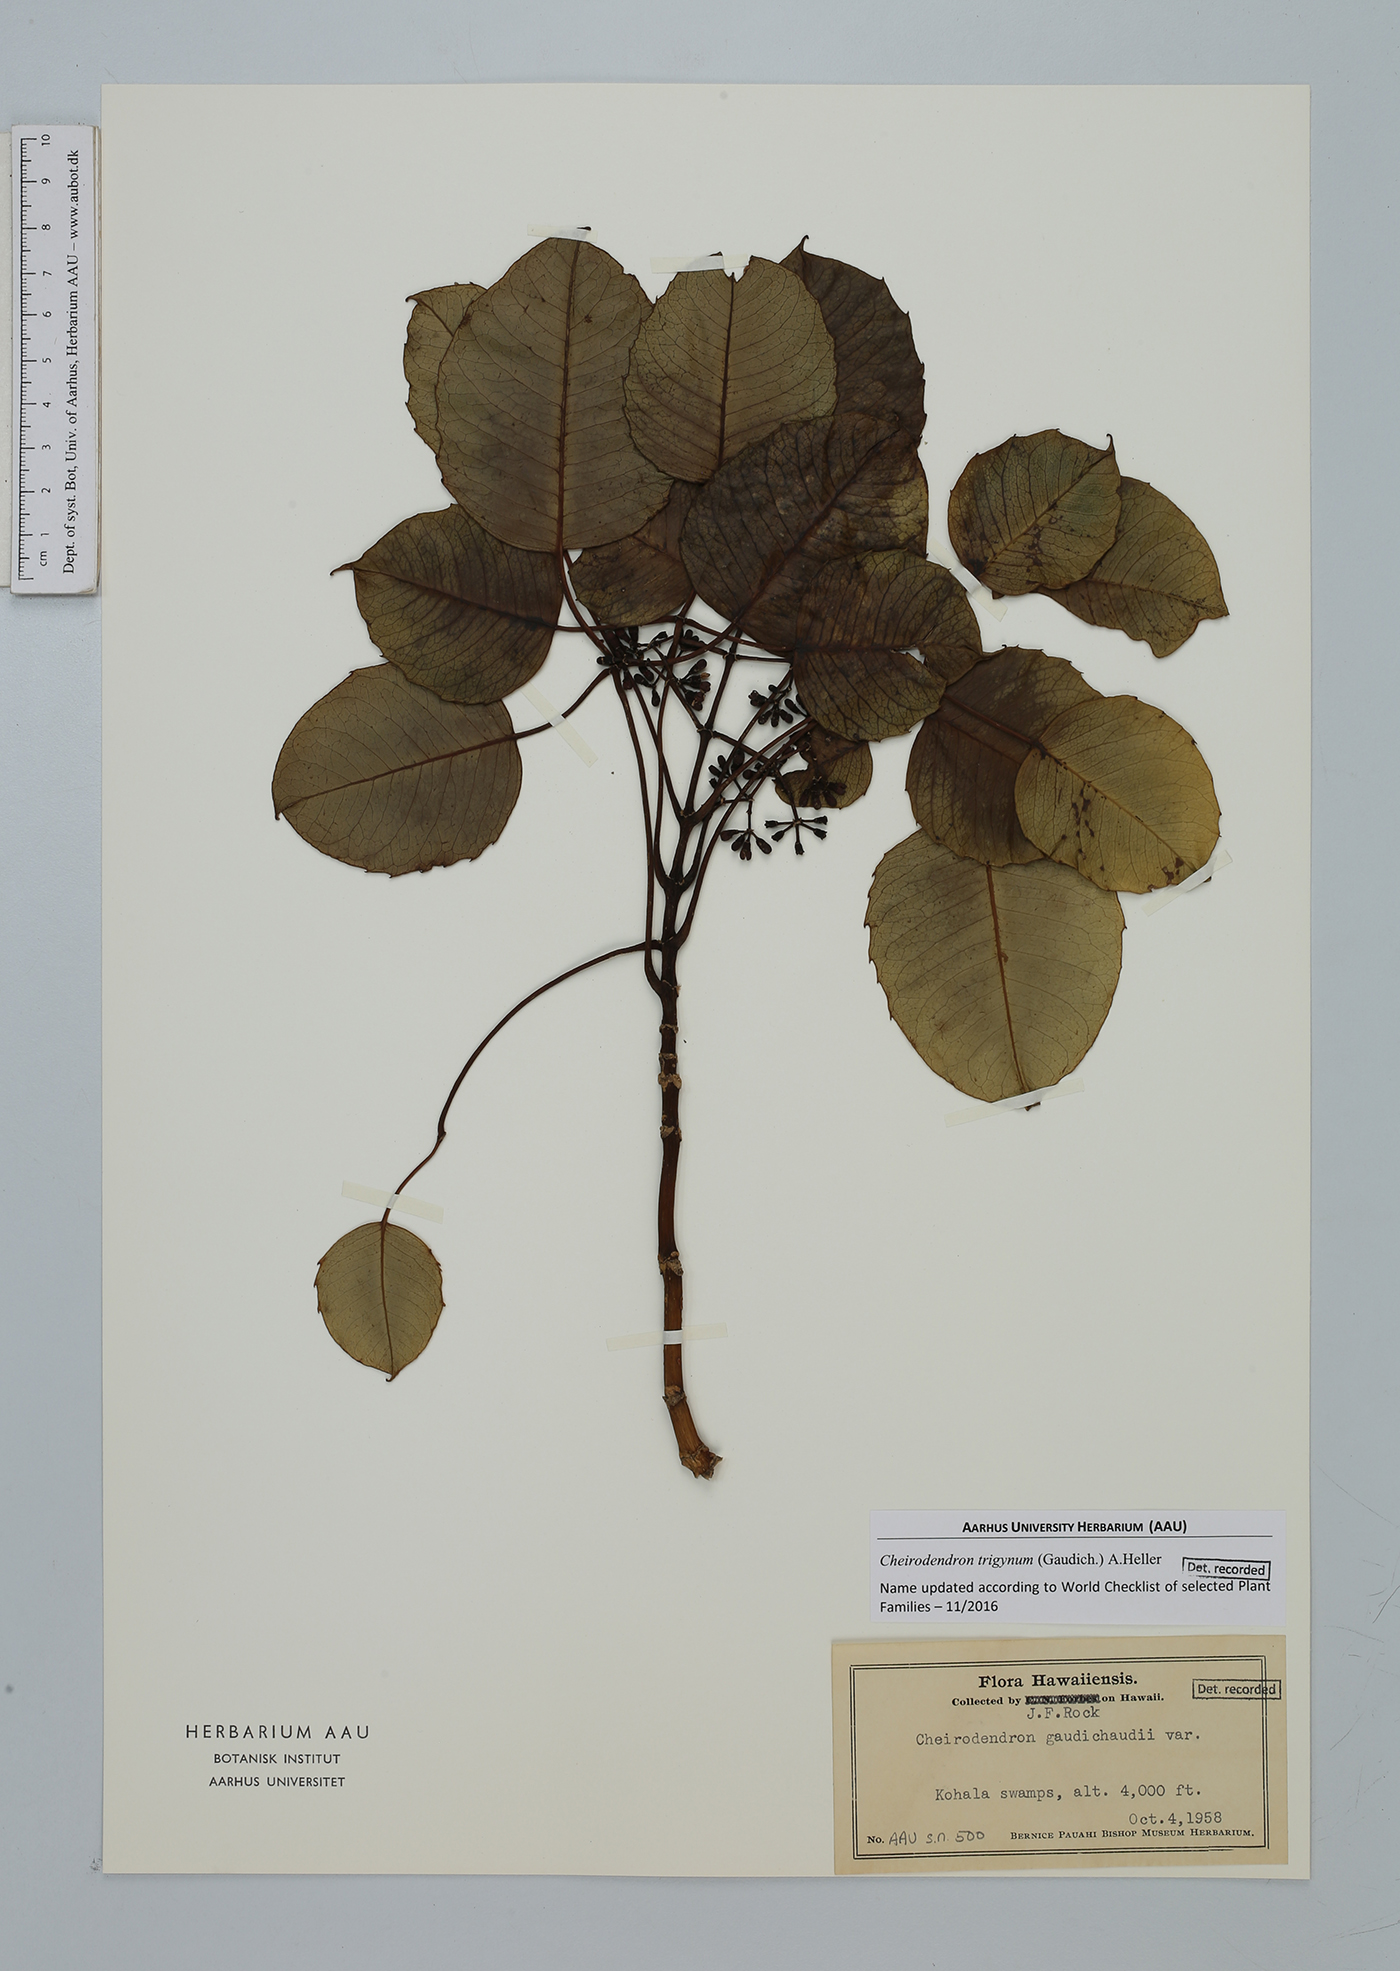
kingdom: Plantae
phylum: Tracheophyta
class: Magnoliopsida
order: Apiales
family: Araliaceae
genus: Cheirodendron
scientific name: Cheirodendron trigynum
